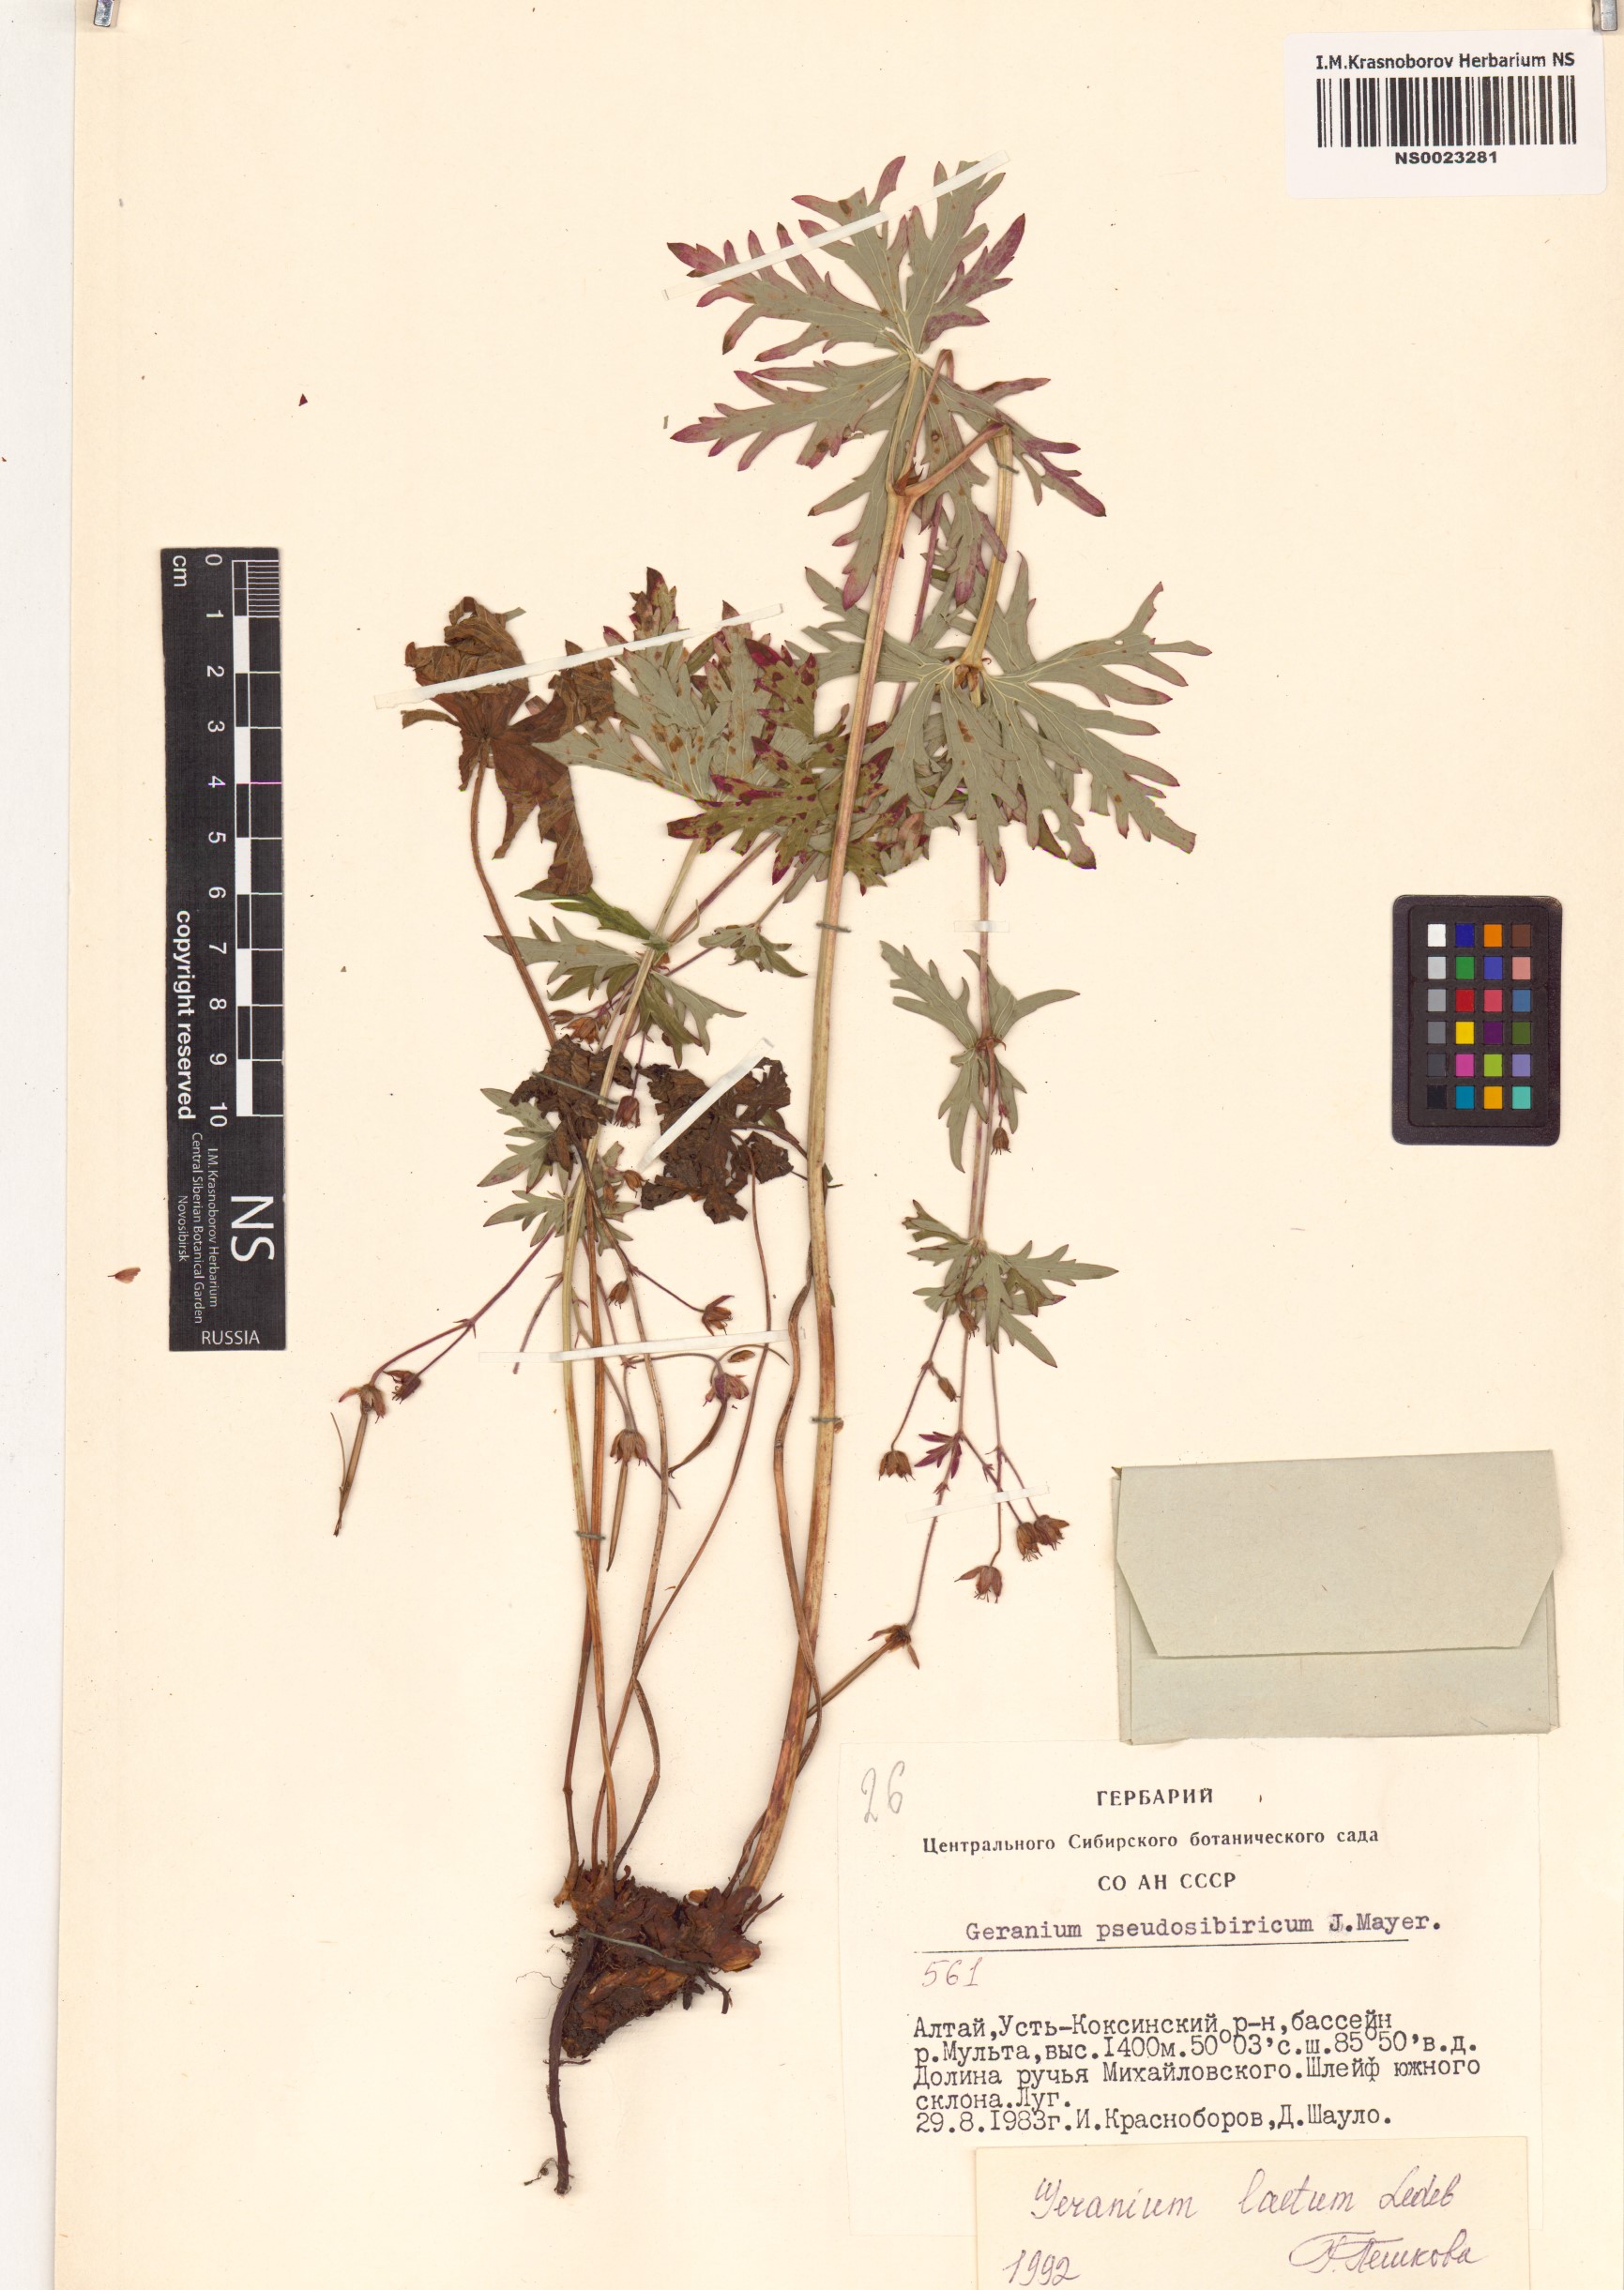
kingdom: Plantae
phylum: Tracheophyta
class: Magnoliopsida
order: Geraniales
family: Geraniaceae
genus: Geranium
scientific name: Geranium pseudosibiricum
